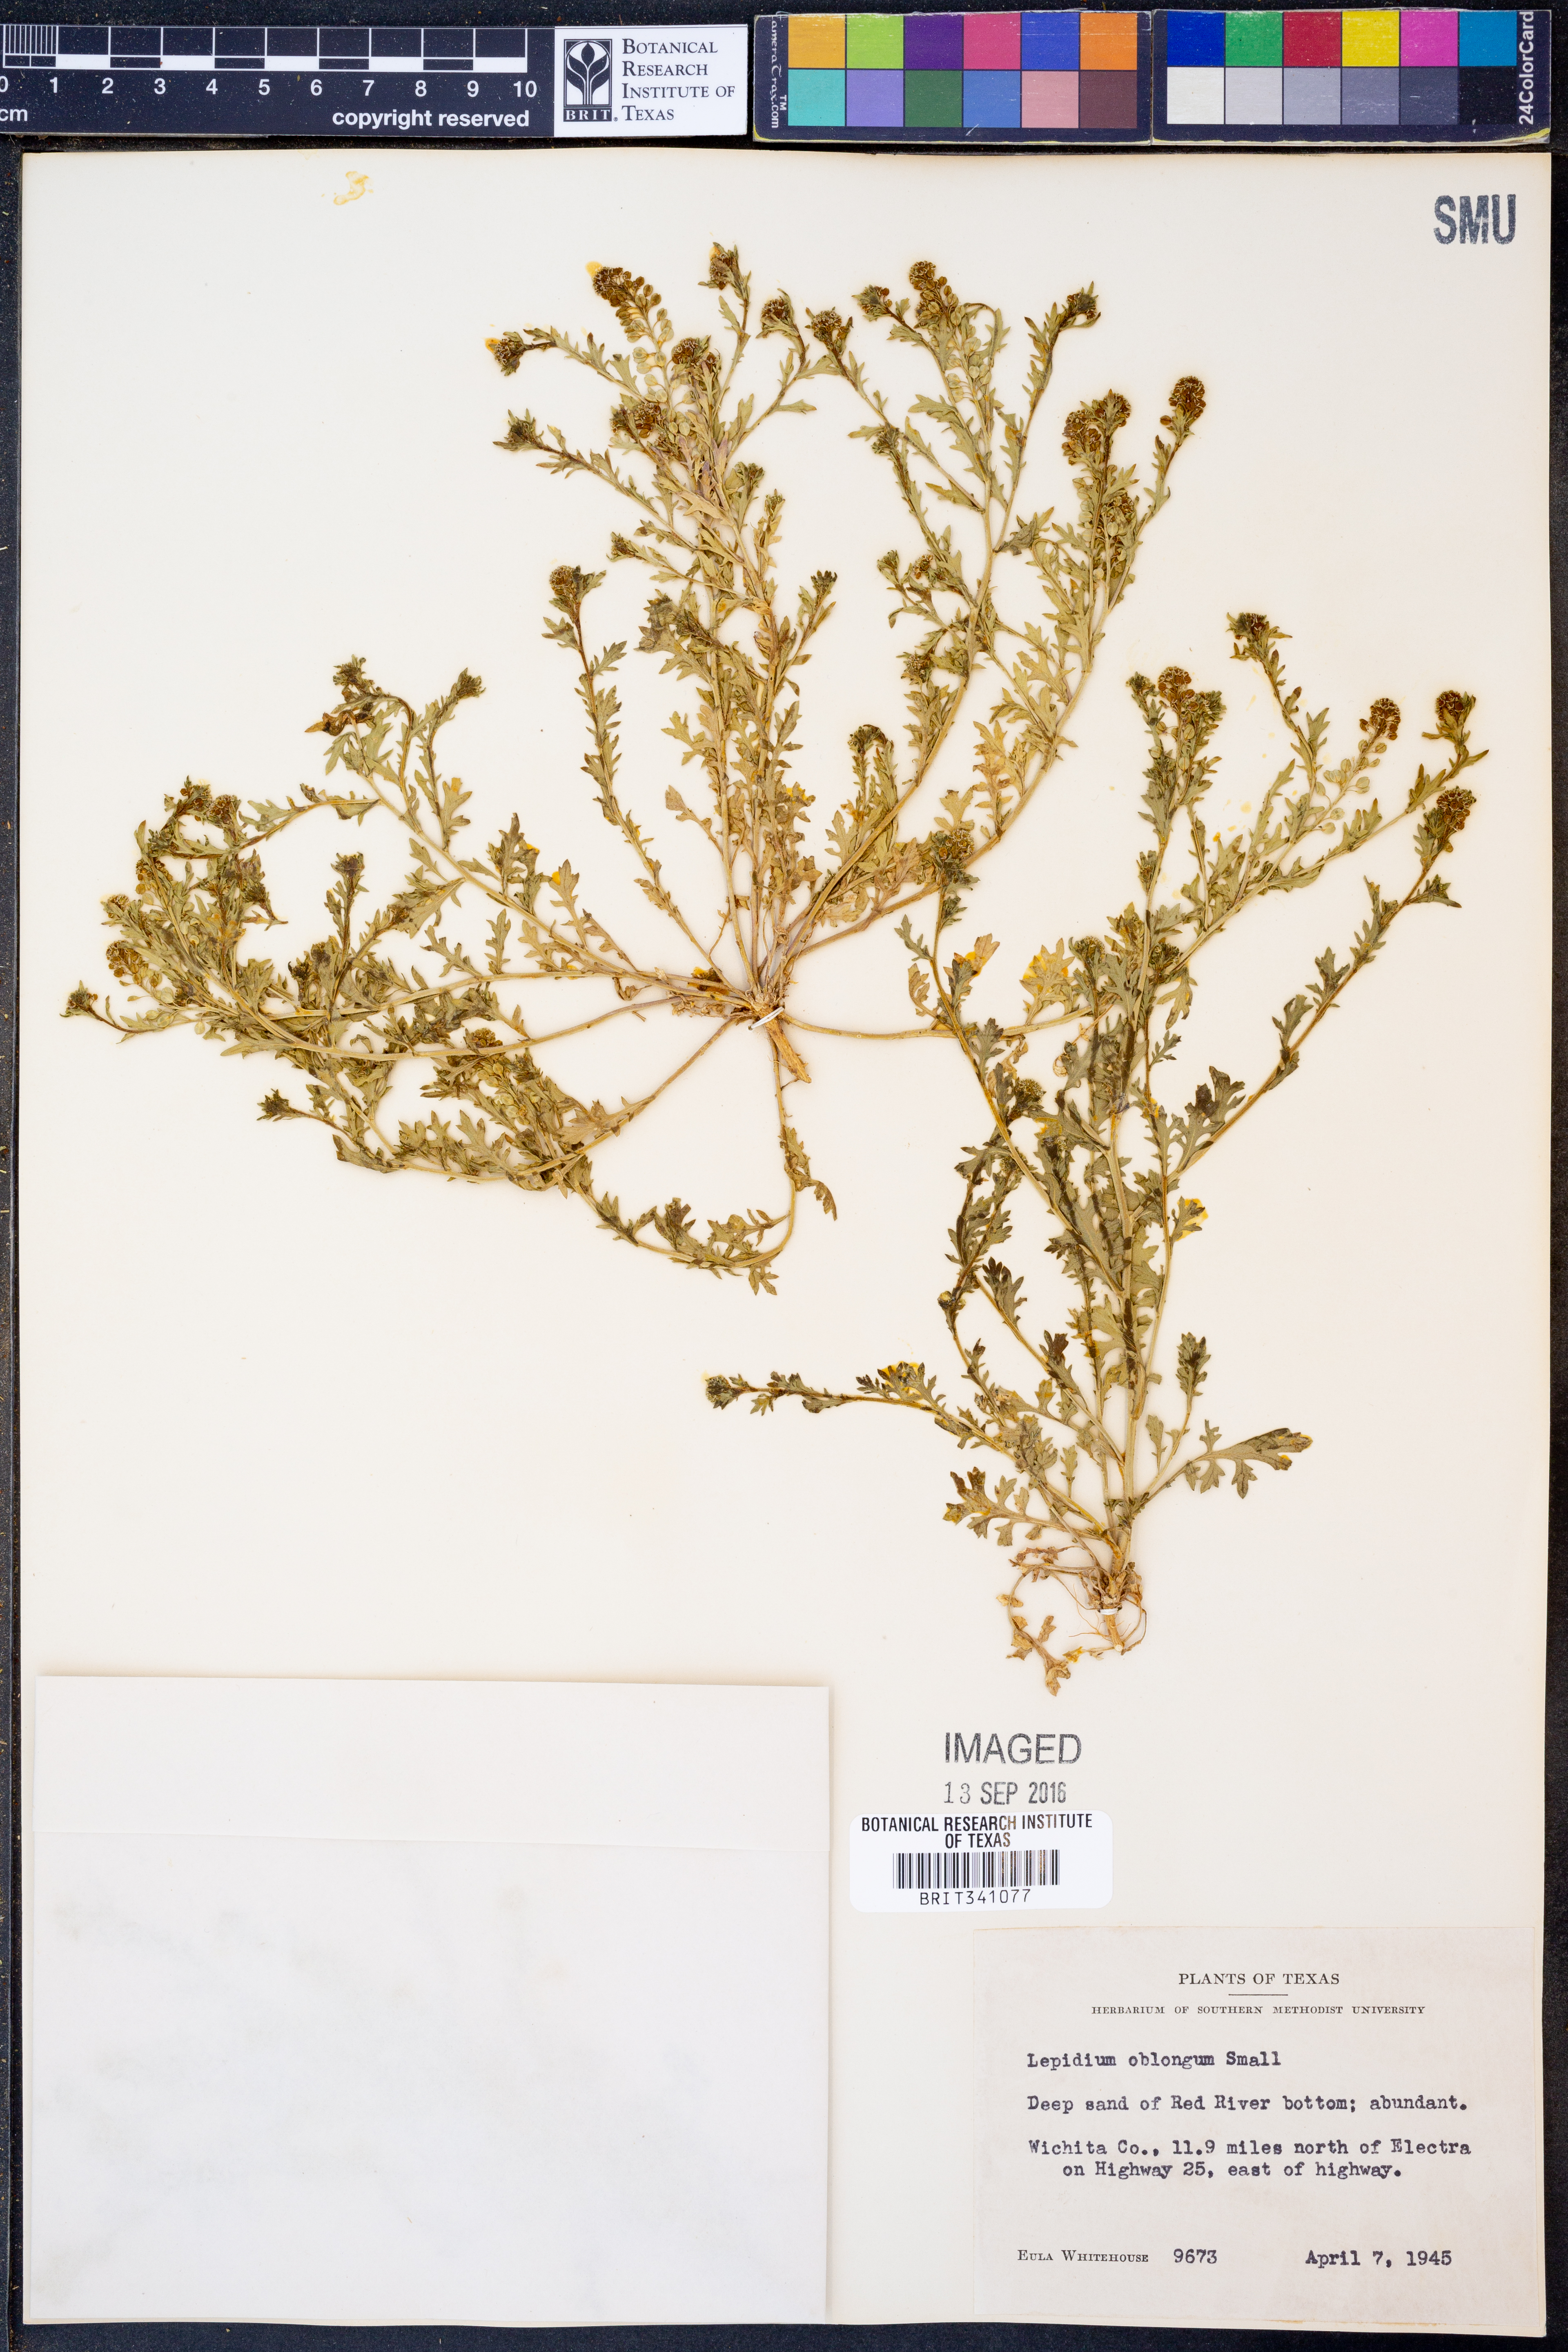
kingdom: Plantae
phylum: Tracheophyta
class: Magnoliopsida
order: Brassicales
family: Brassicaceae
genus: Lepidium
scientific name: Lepidium oblongum
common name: Veiny pepperweed
